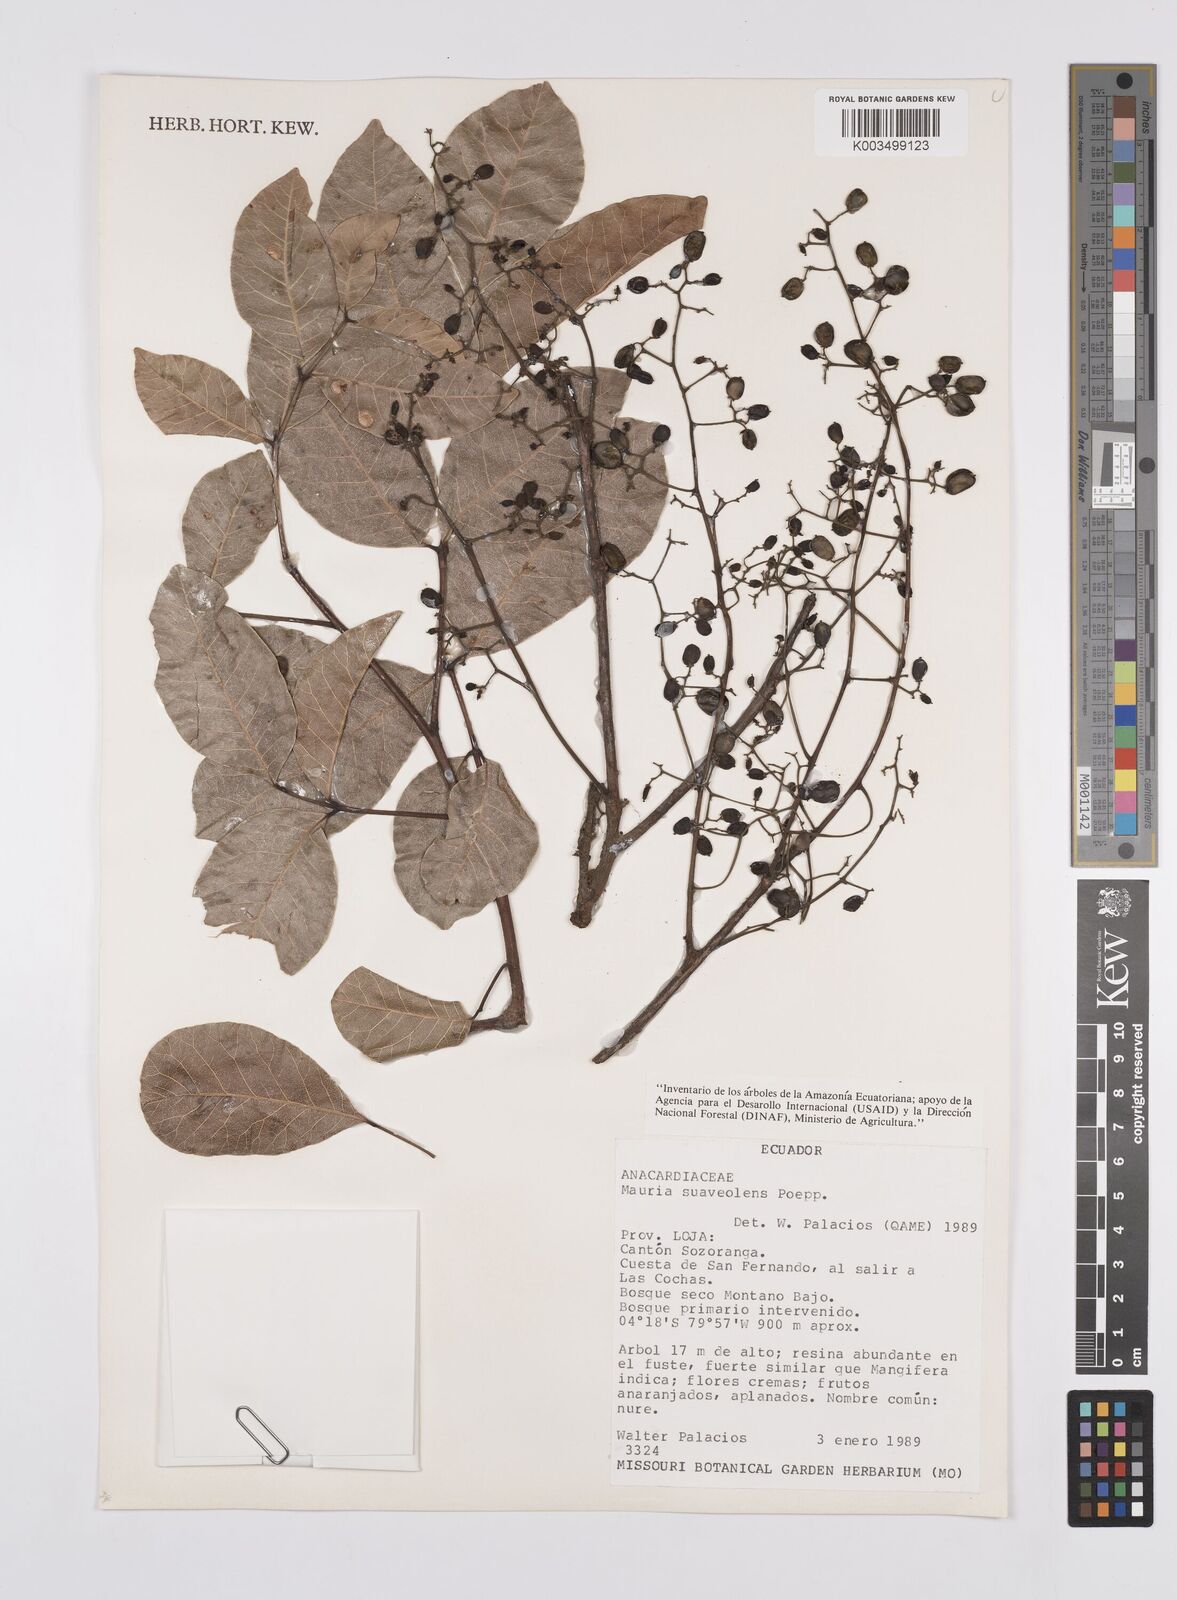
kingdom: Plantae
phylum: Tracheophyta
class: Magnoliopsida
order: Sapindales
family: Anacardiaceae
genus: Mauria
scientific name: Mauria heterophylla
